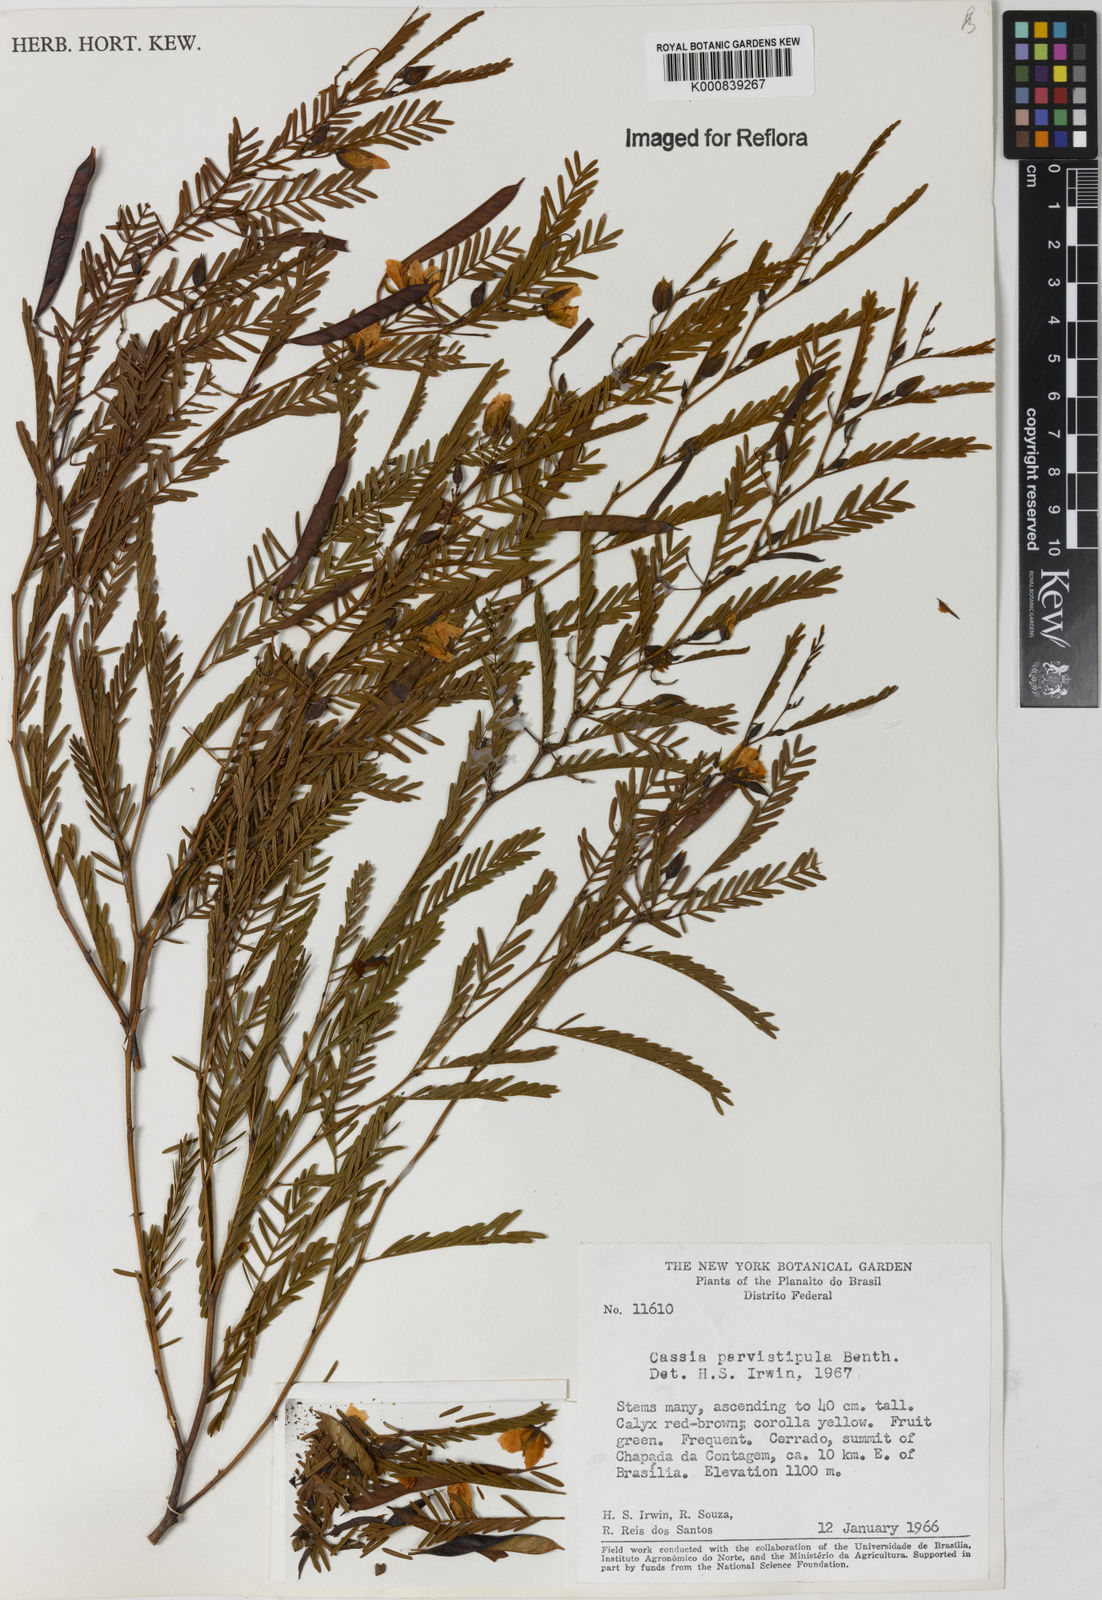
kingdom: Plantae
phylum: Tracheophyta
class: Magnoliopsida
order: Fabales
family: Fabaceae
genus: Chamaecrista
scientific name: Chamaecrista parvistipula
